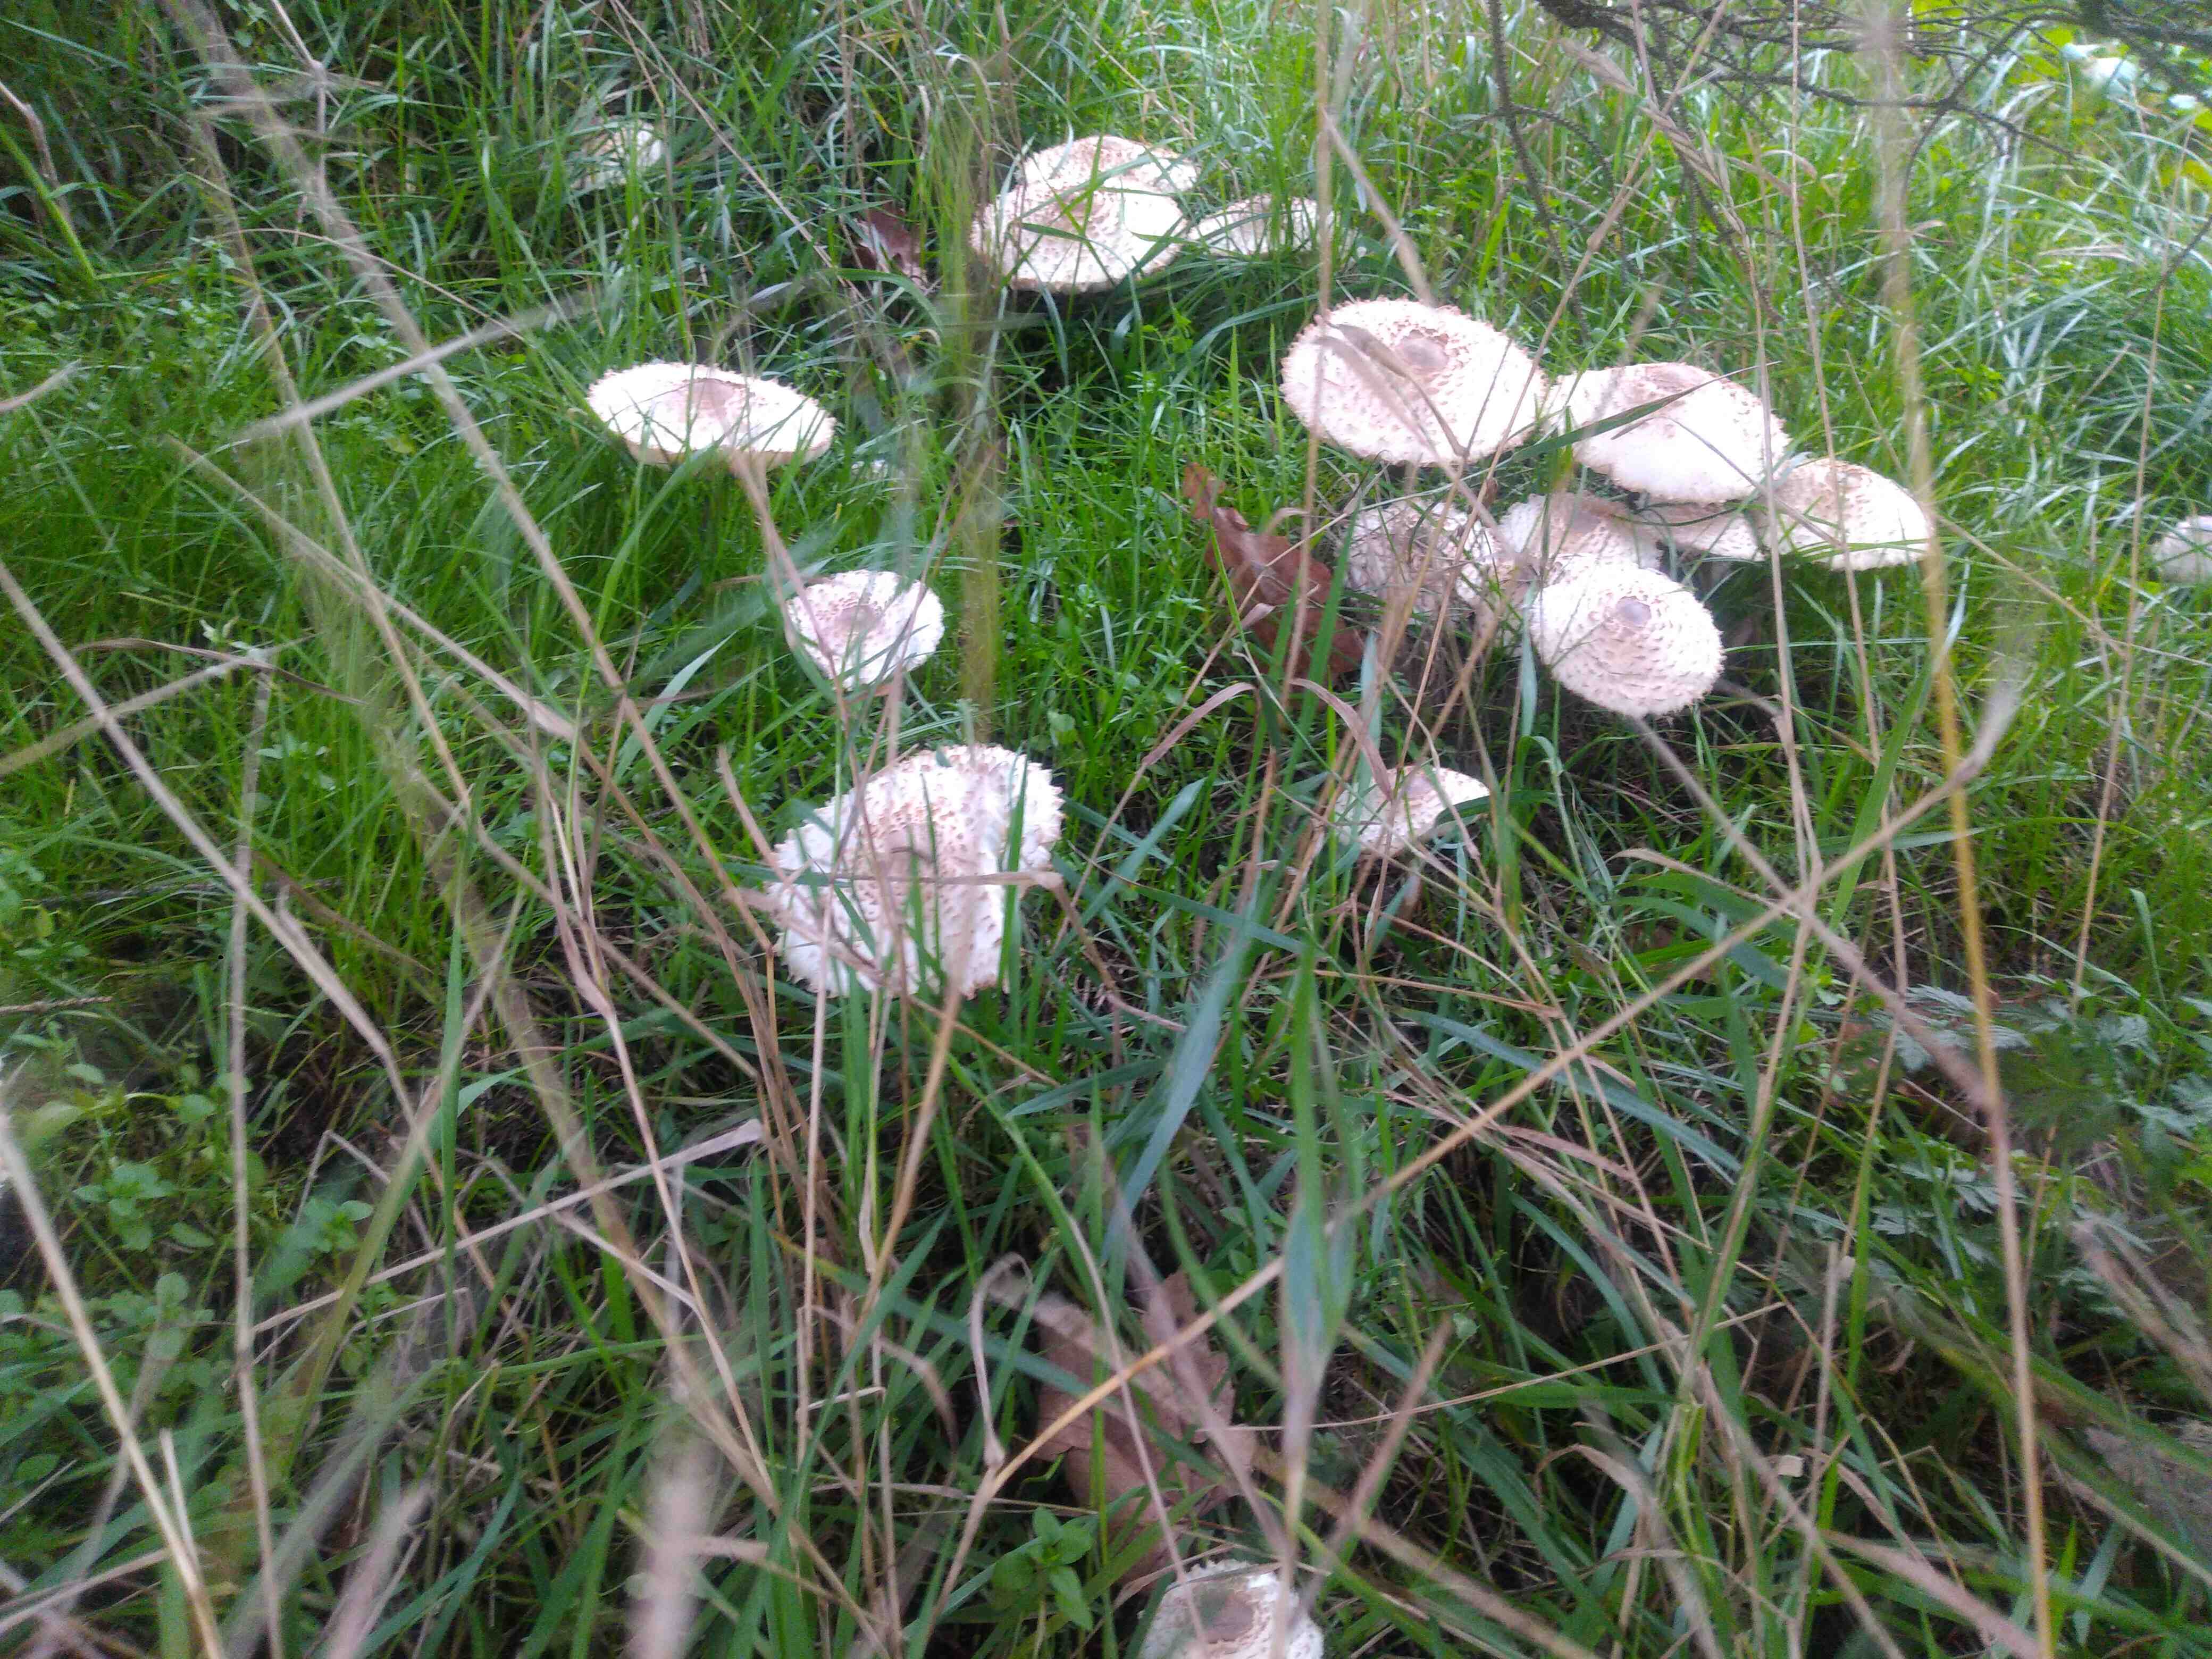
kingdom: Fungi
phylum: Basidiomycota
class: Agaricomycetes
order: Agaricales
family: Agaricaceae
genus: Leucoagaricus
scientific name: Leucoagaricus nympharum
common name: gran-silkehat
